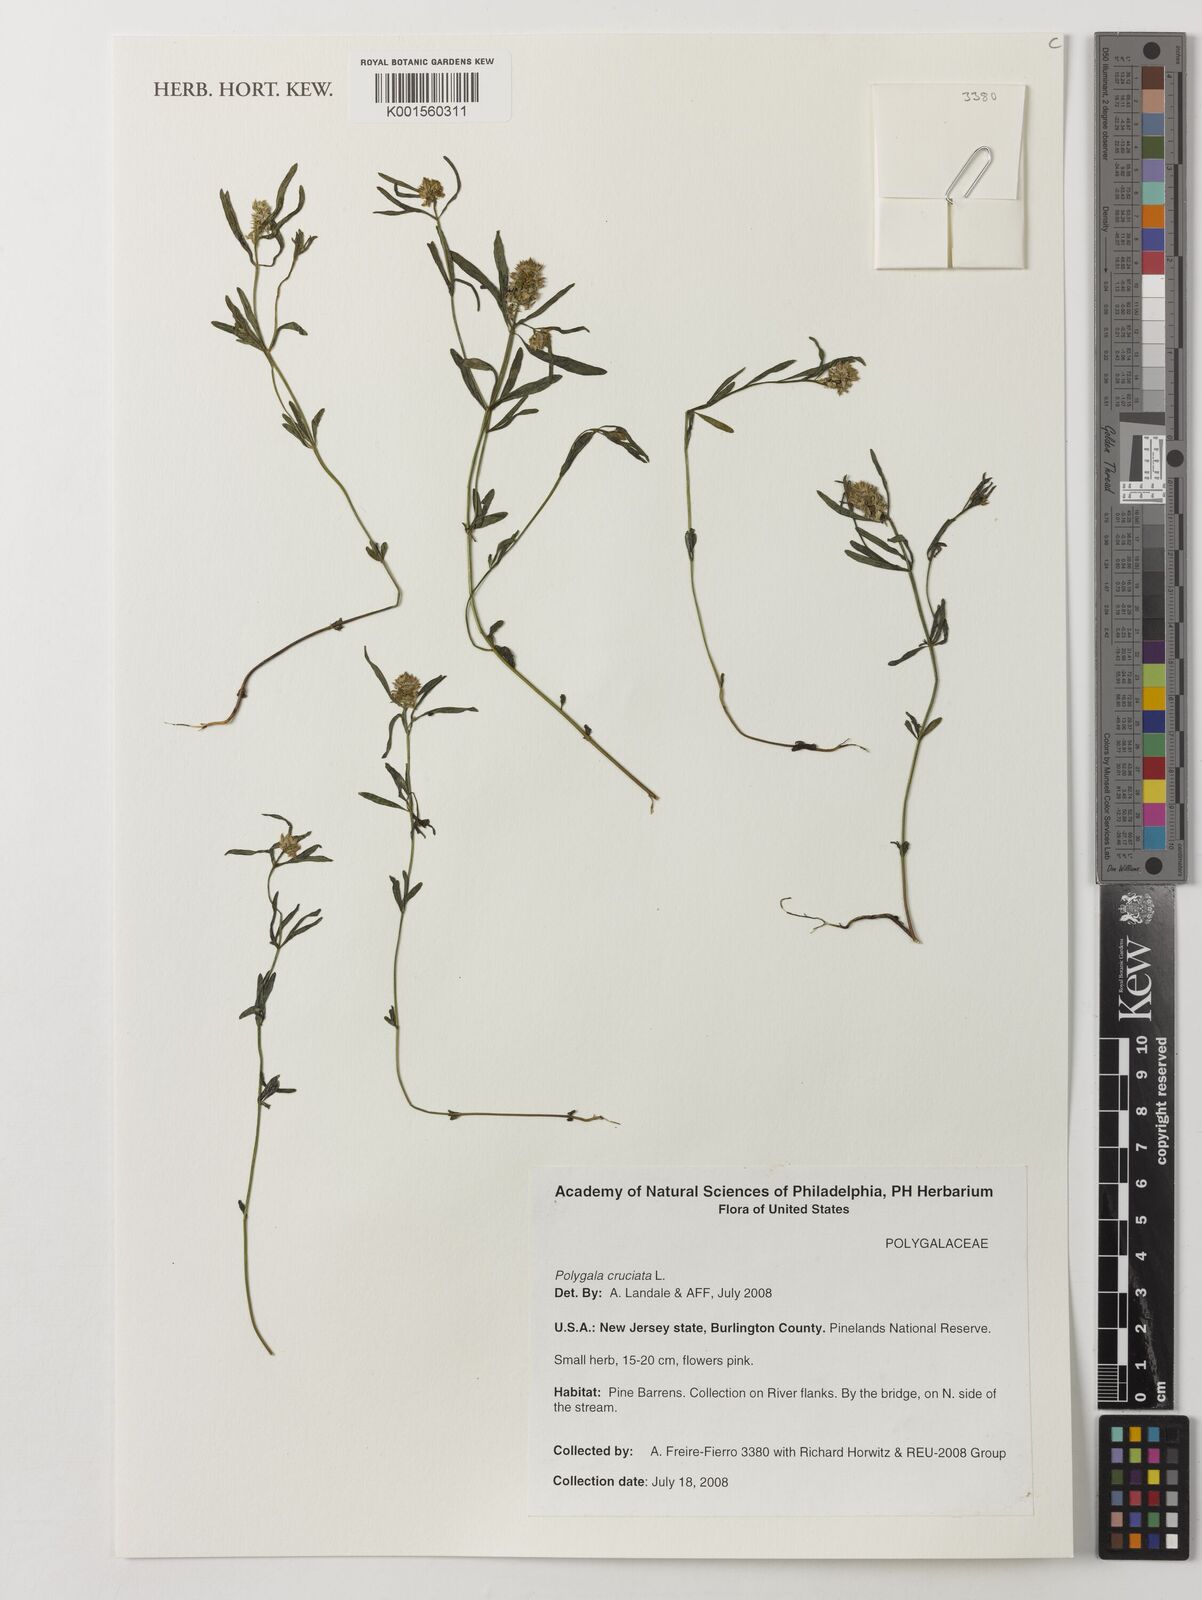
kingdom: Plantae
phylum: Tracheophyta
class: Magnoliopsida
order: Fabales
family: Polygalaceae
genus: Polygala
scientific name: Polygala cruciata
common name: Drumheads
